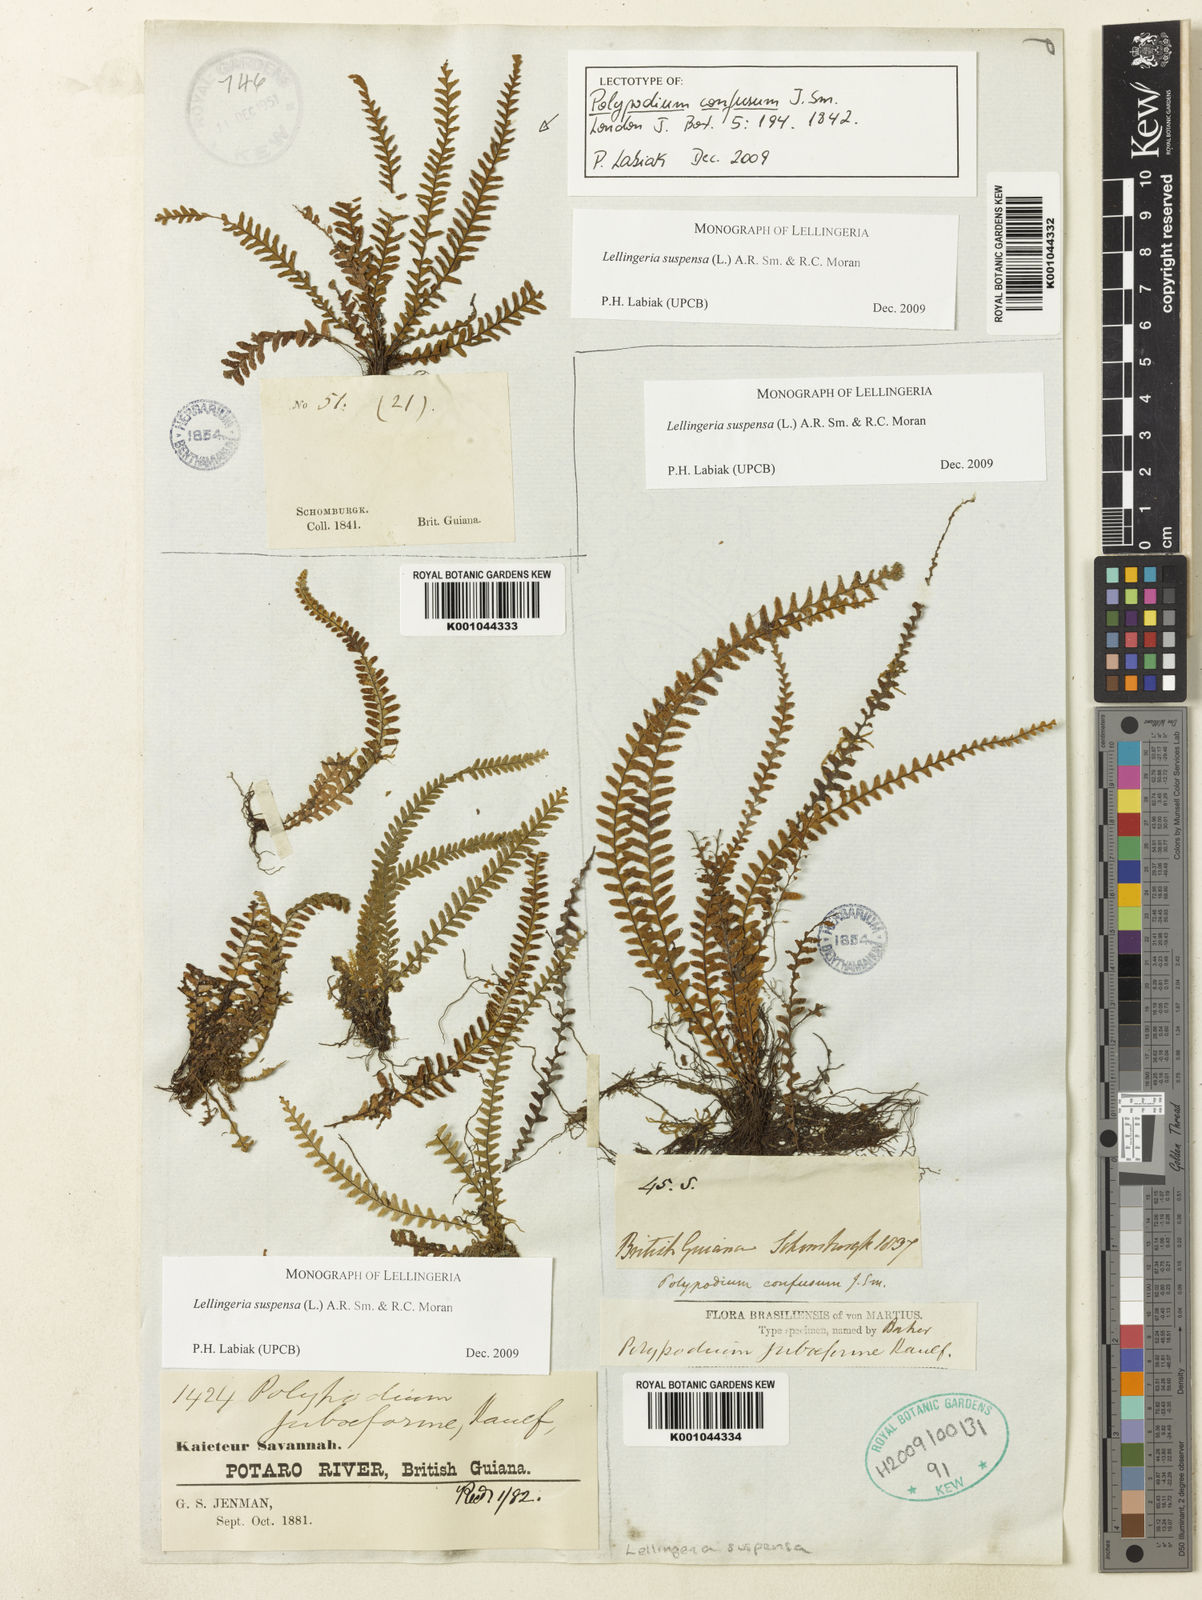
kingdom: Plantae
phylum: Tracheophyta
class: Polypodiopsida
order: Polypodiales
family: Polypodiaceae
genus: Lellingeria
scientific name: Lellingeria suspensa
